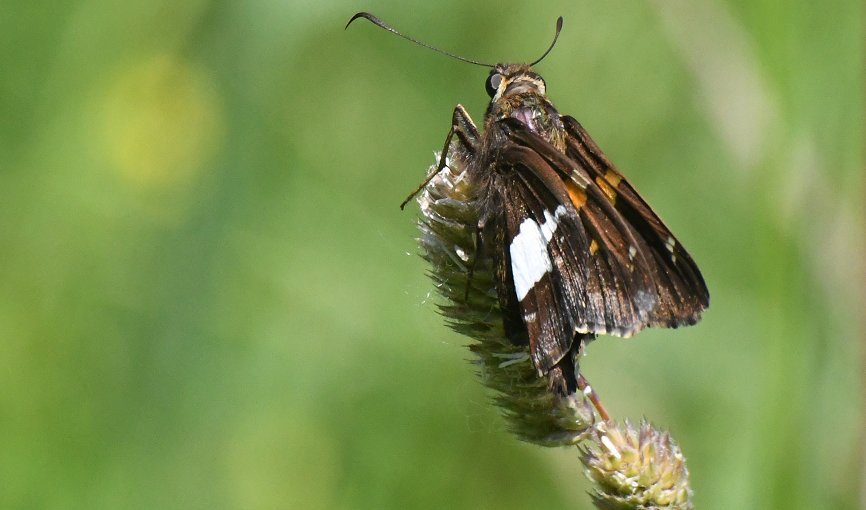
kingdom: Animalia
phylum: Arthropoda
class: Insecta
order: Lepidoptera
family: Hesperiidae
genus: Epargyreus
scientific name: Epargyreus clarus
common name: Silver-spotted Skipper
